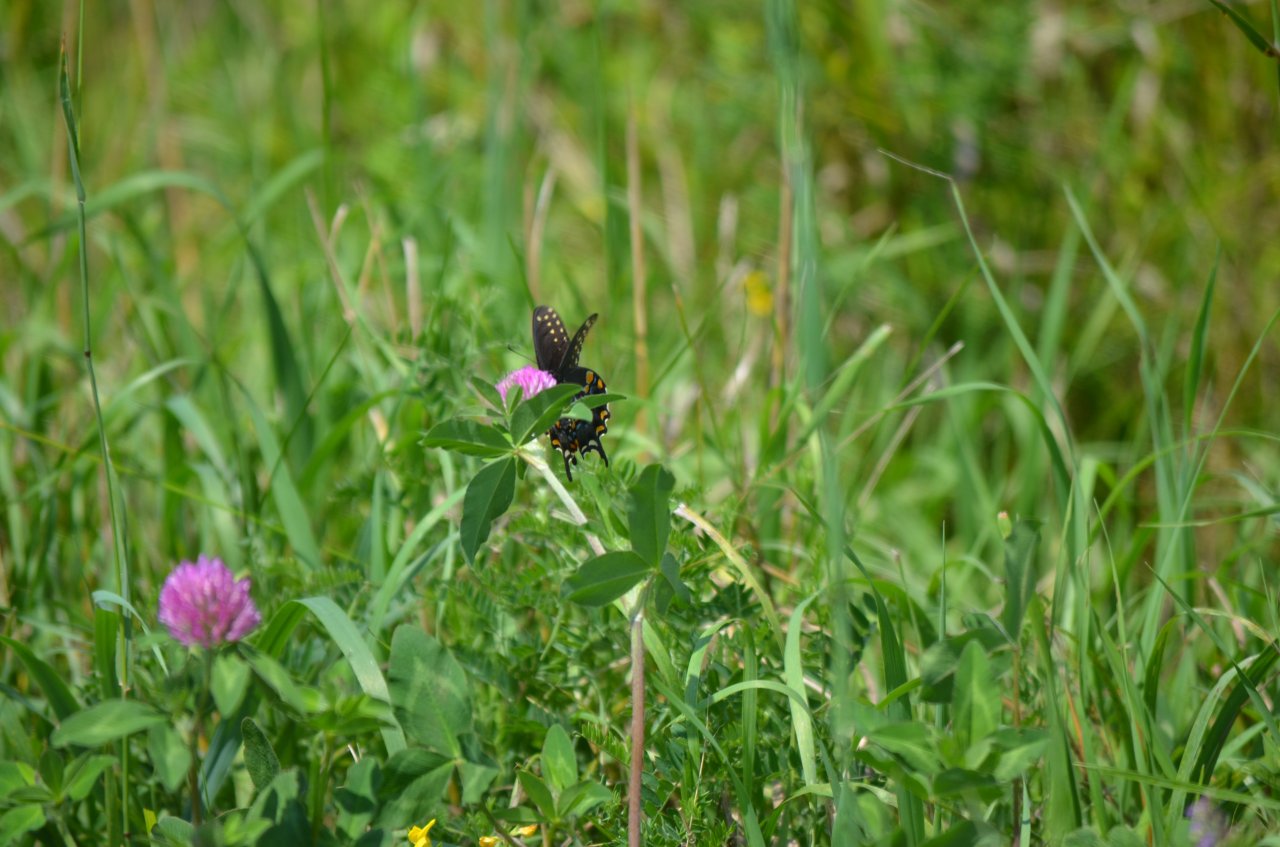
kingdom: Animalia
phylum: Arthropoda
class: Insecta
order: Lepidoptera
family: Papilionidae
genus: Papilio
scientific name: Papilio polyxenes
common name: Black Swallowtail
